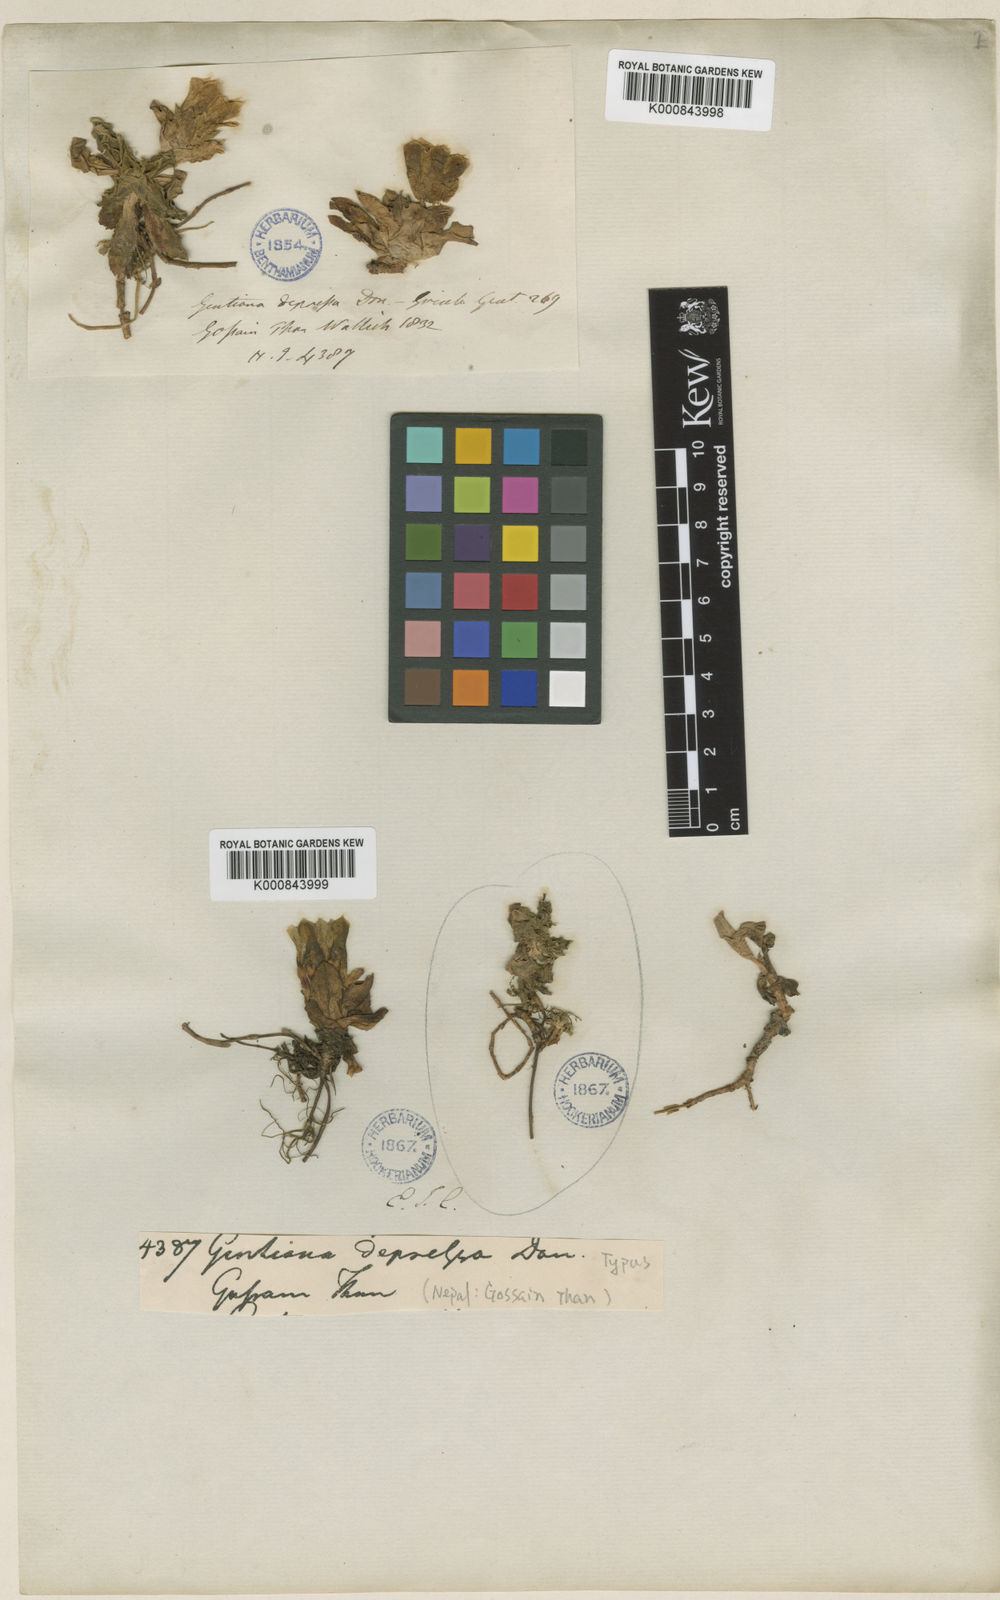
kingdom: Plantae
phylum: Tracheophyta
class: Magnoliopsida
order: Gentianales
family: Gentianaceae
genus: Gentiana
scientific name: Gentiana depressa
